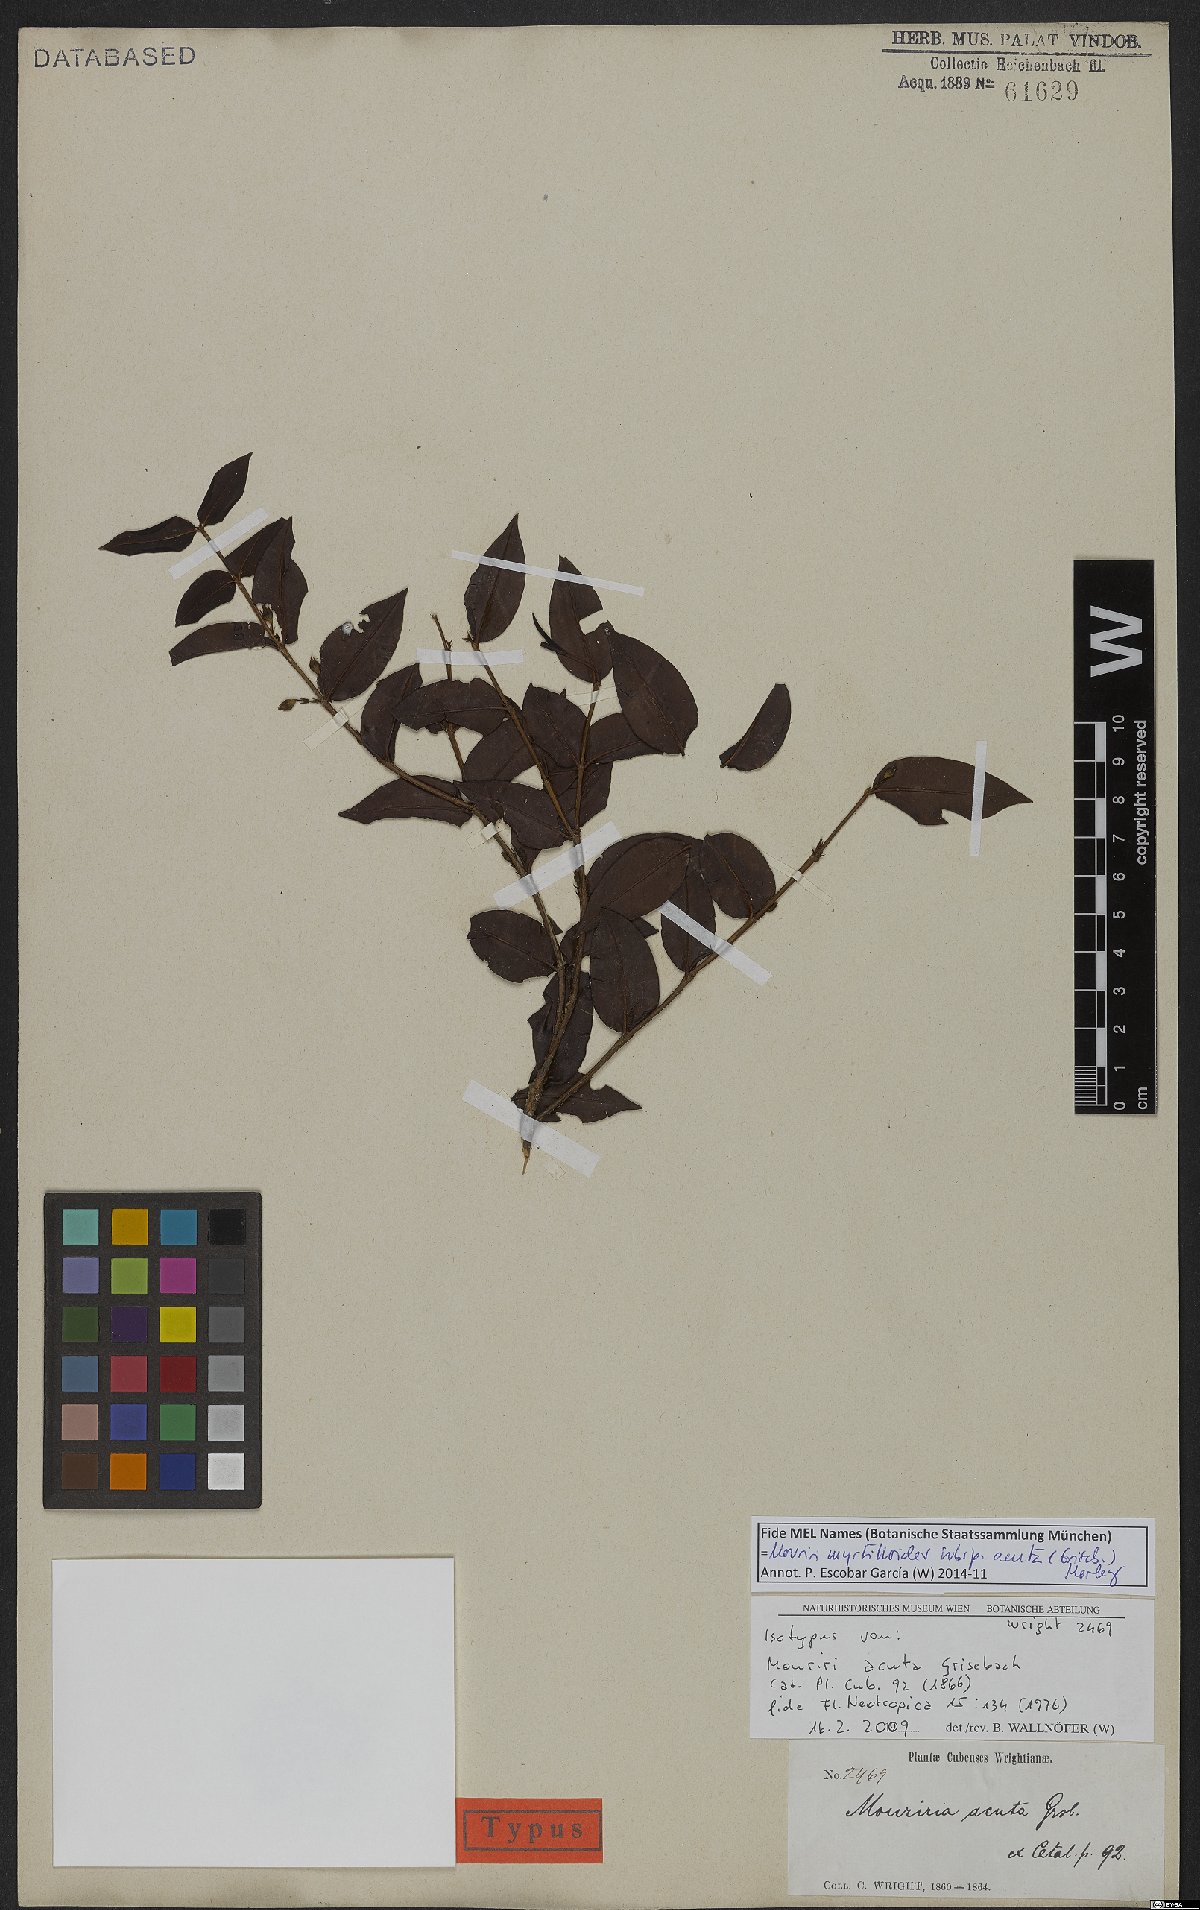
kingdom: Plantae
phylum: Tracheophyta
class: Magnoliopsida
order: Myrtales
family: Melastomataceae
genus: Mouriri
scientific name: Mouriri myrtilloides
